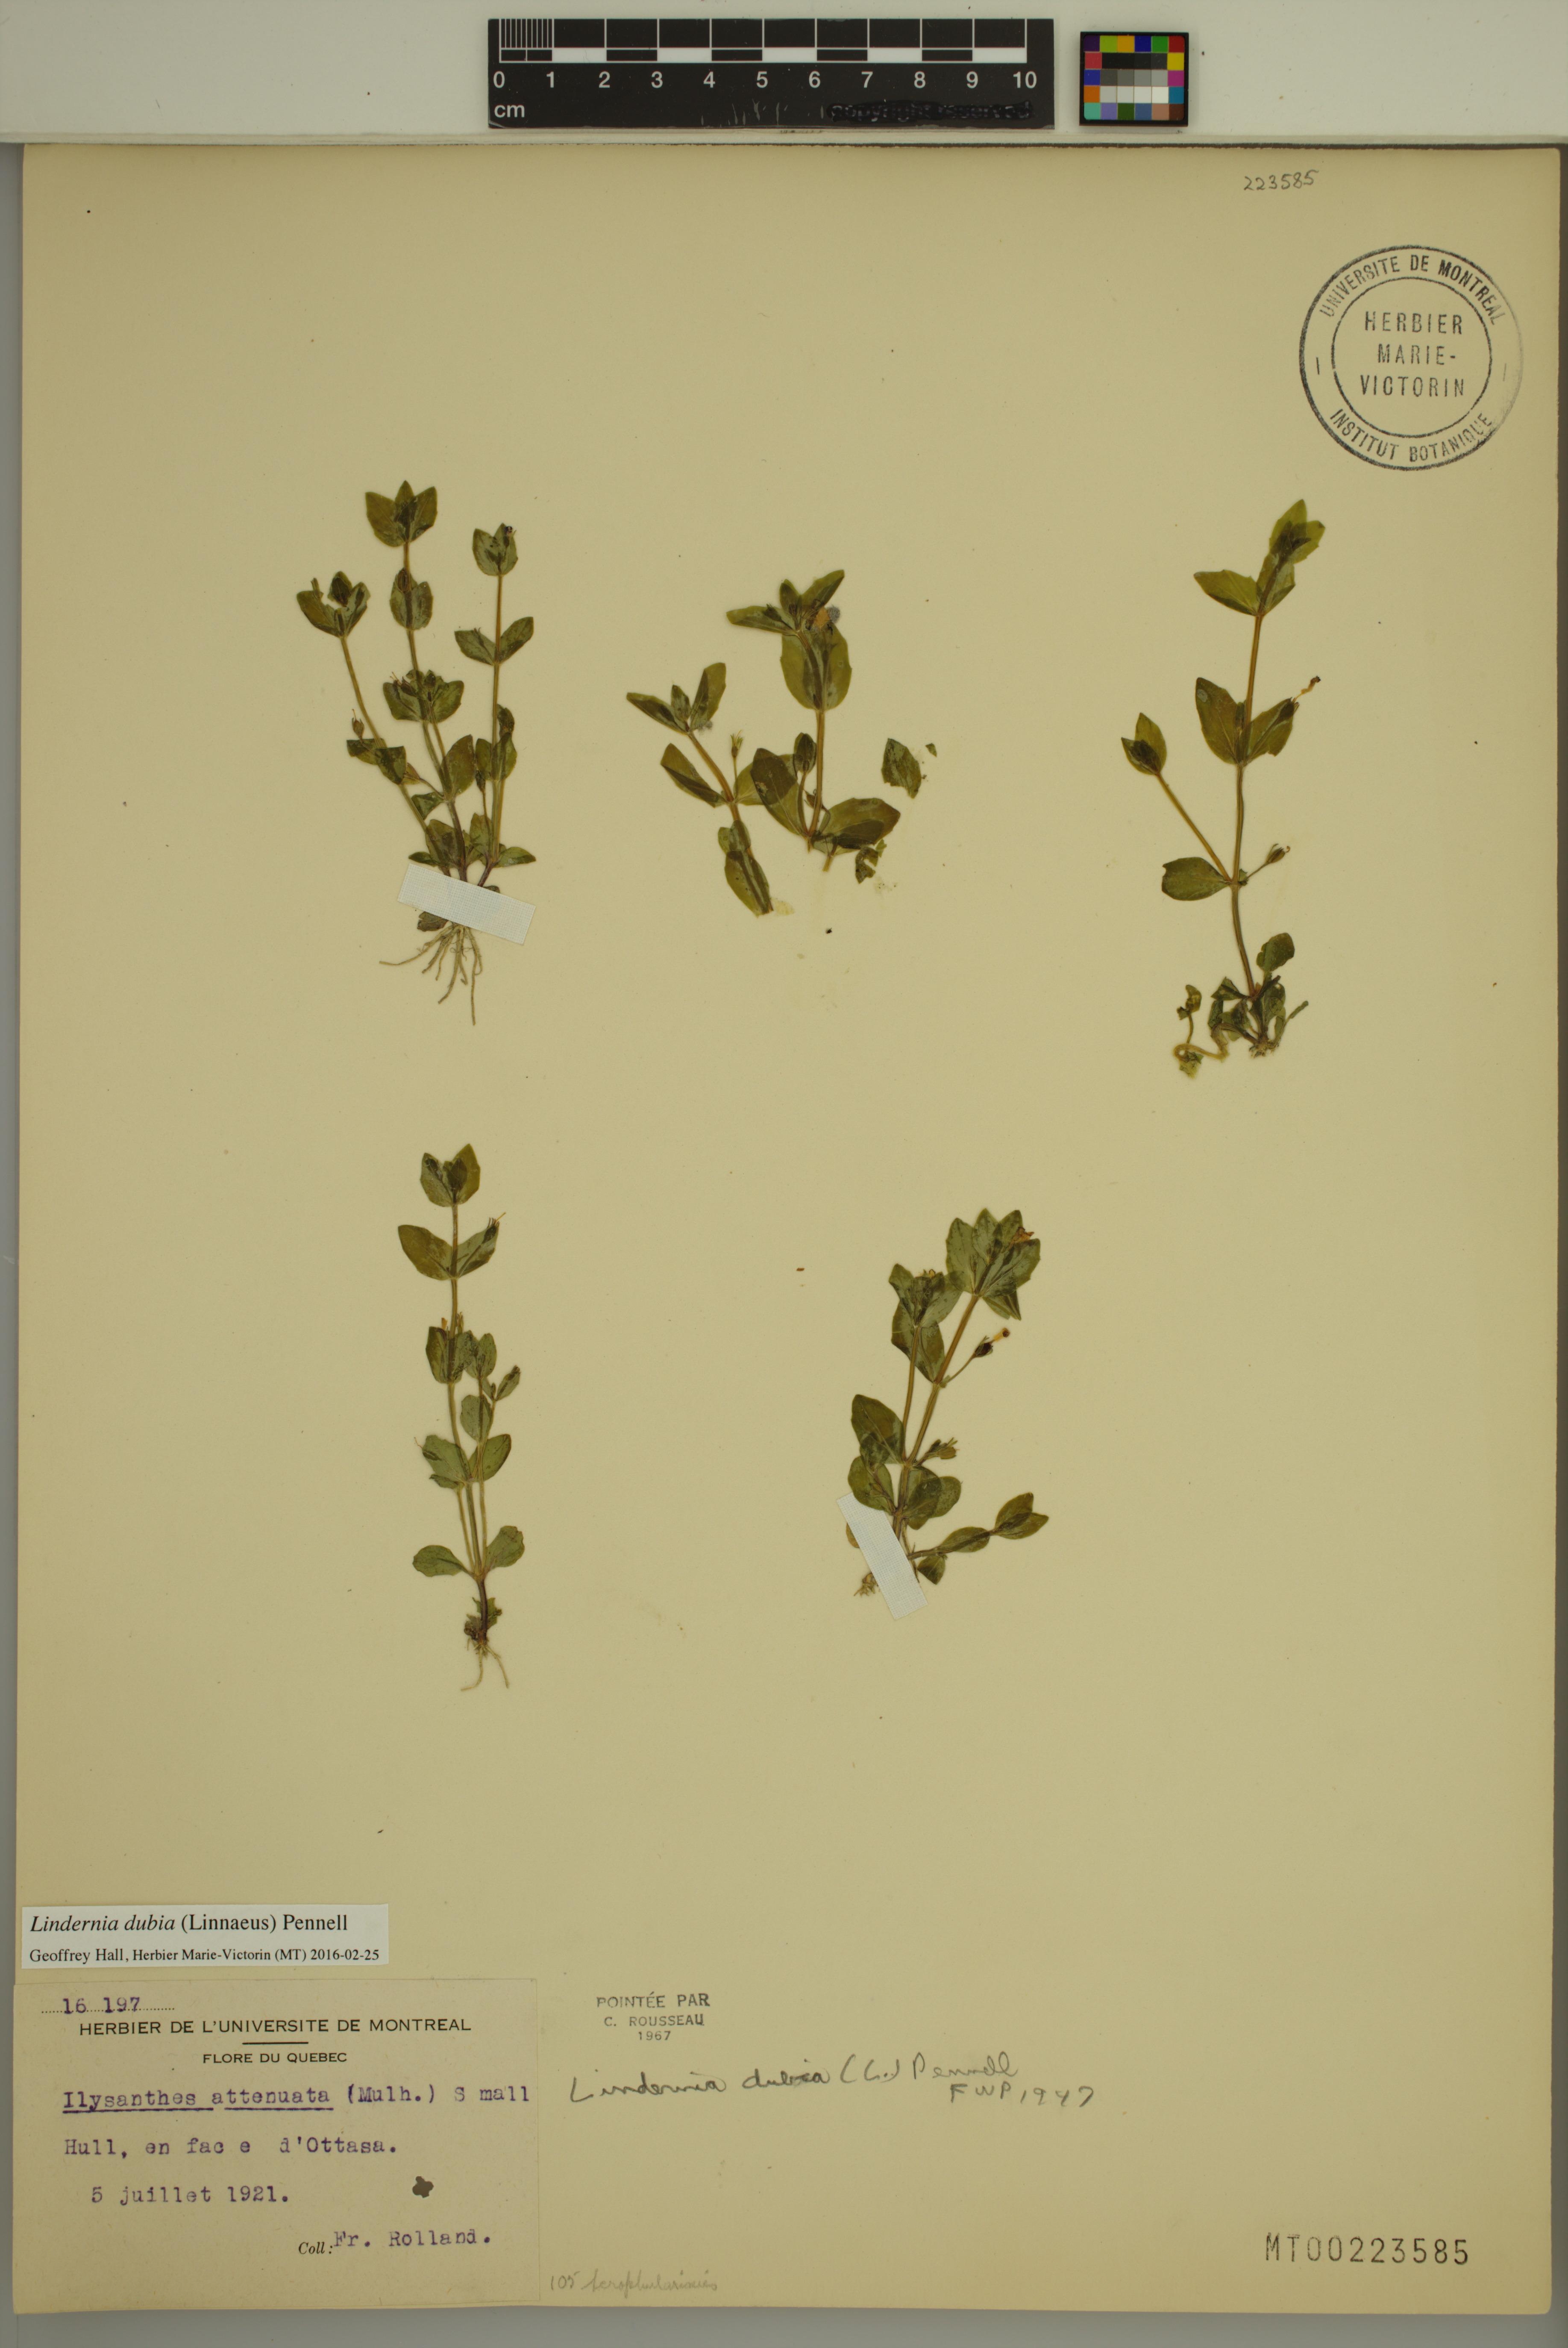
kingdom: Plantae
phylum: Tracheophyta
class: Magnoliopsida
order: Lamiales
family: Linderniaceae
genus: Lindernia
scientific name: Lindernia dubia
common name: Annual false pimpernel
